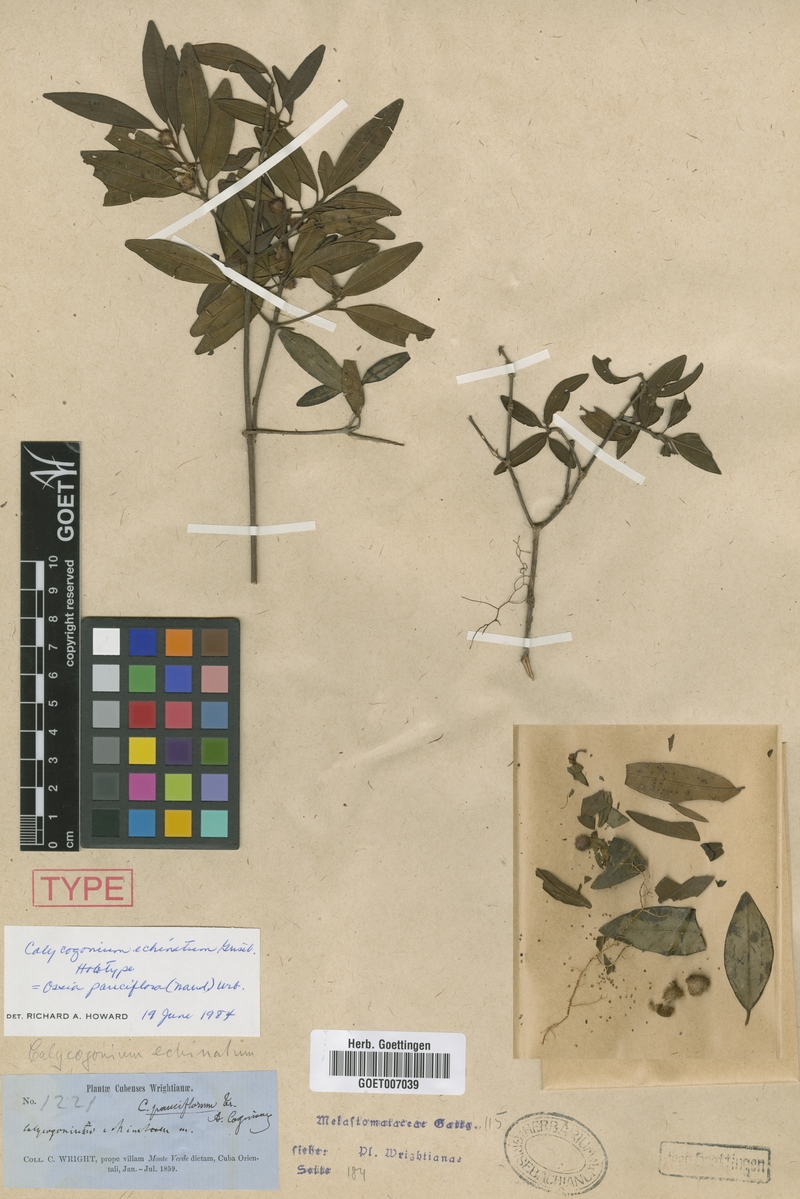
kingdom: Plantae
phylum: Tracheophyta
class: Magnoliopsida
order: Myrtales
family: Melastomataceae
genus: Miconia
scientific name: Miconia echinata
